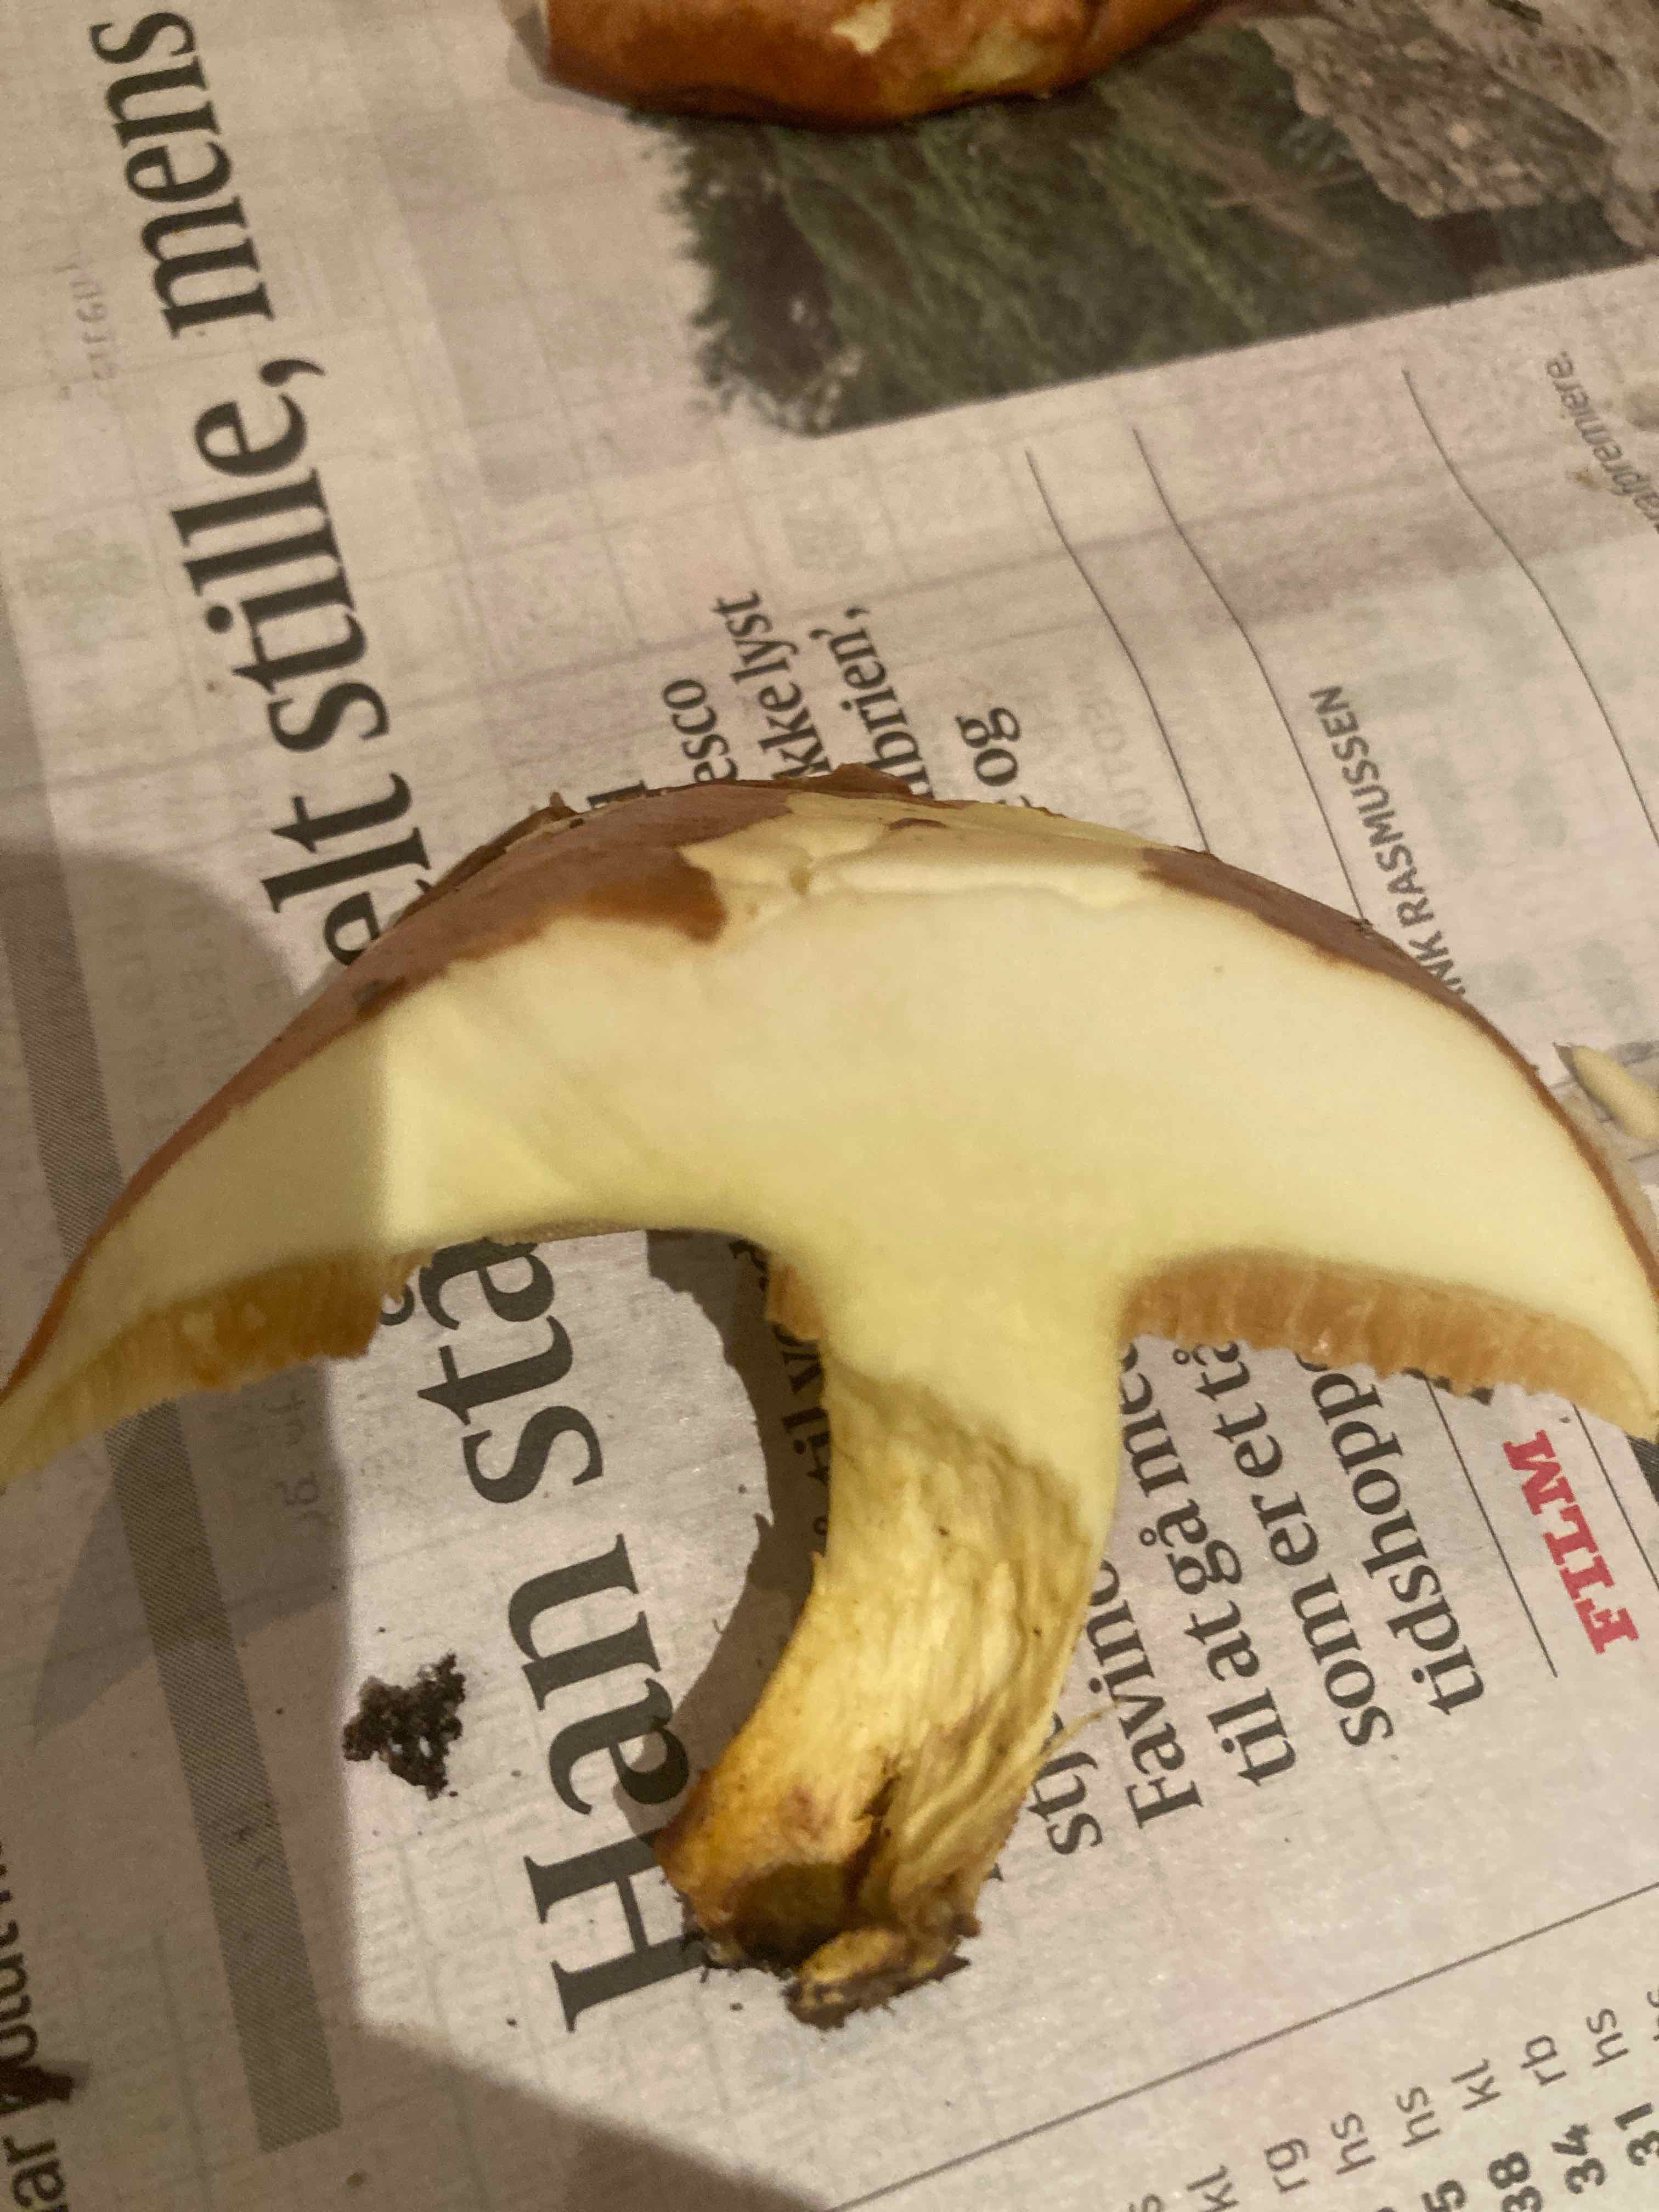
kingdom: Fungi
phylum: Basidiomycota
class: Agaricomycetes
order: Boletales
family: Suillaceae
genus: Suillus
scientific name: Suillus granulatus
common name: kornet slimrørhat
